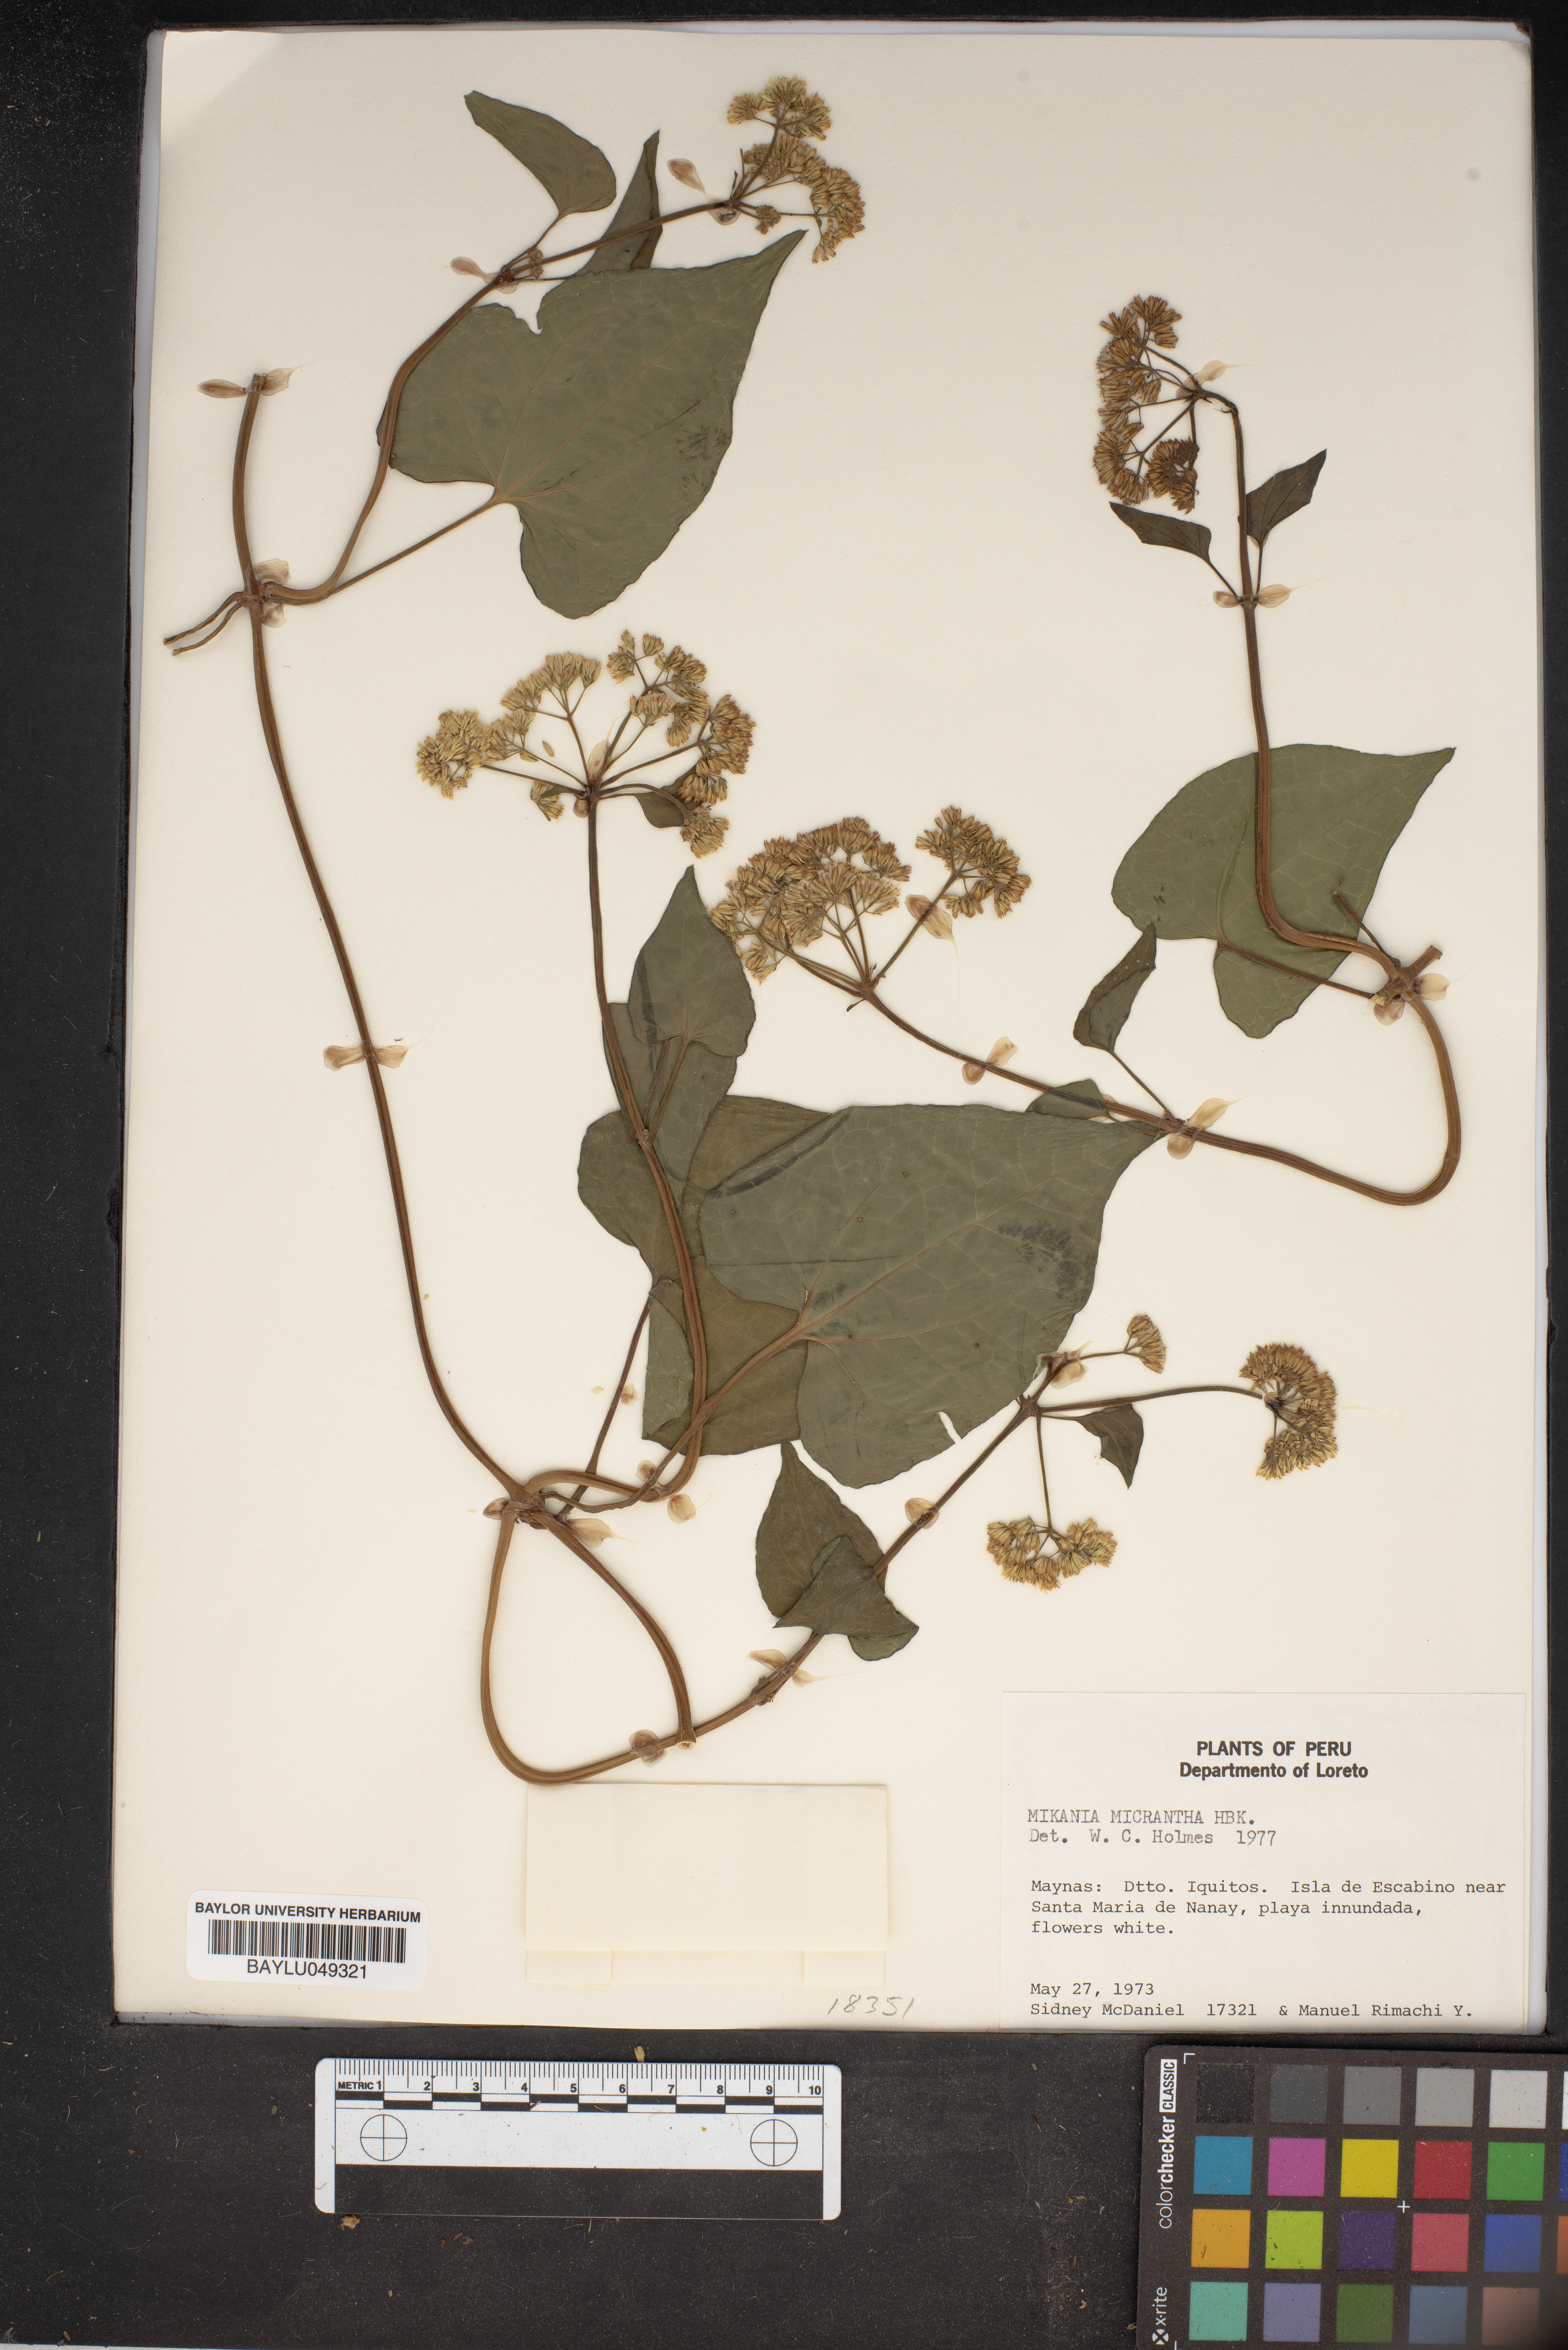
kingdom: Plantae
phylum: Tracheophyta
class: Magnoliopsida
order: Asterales
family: Asteraceae
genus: Mikania
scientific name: Mikania micrantha
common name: Mile-a-minute
